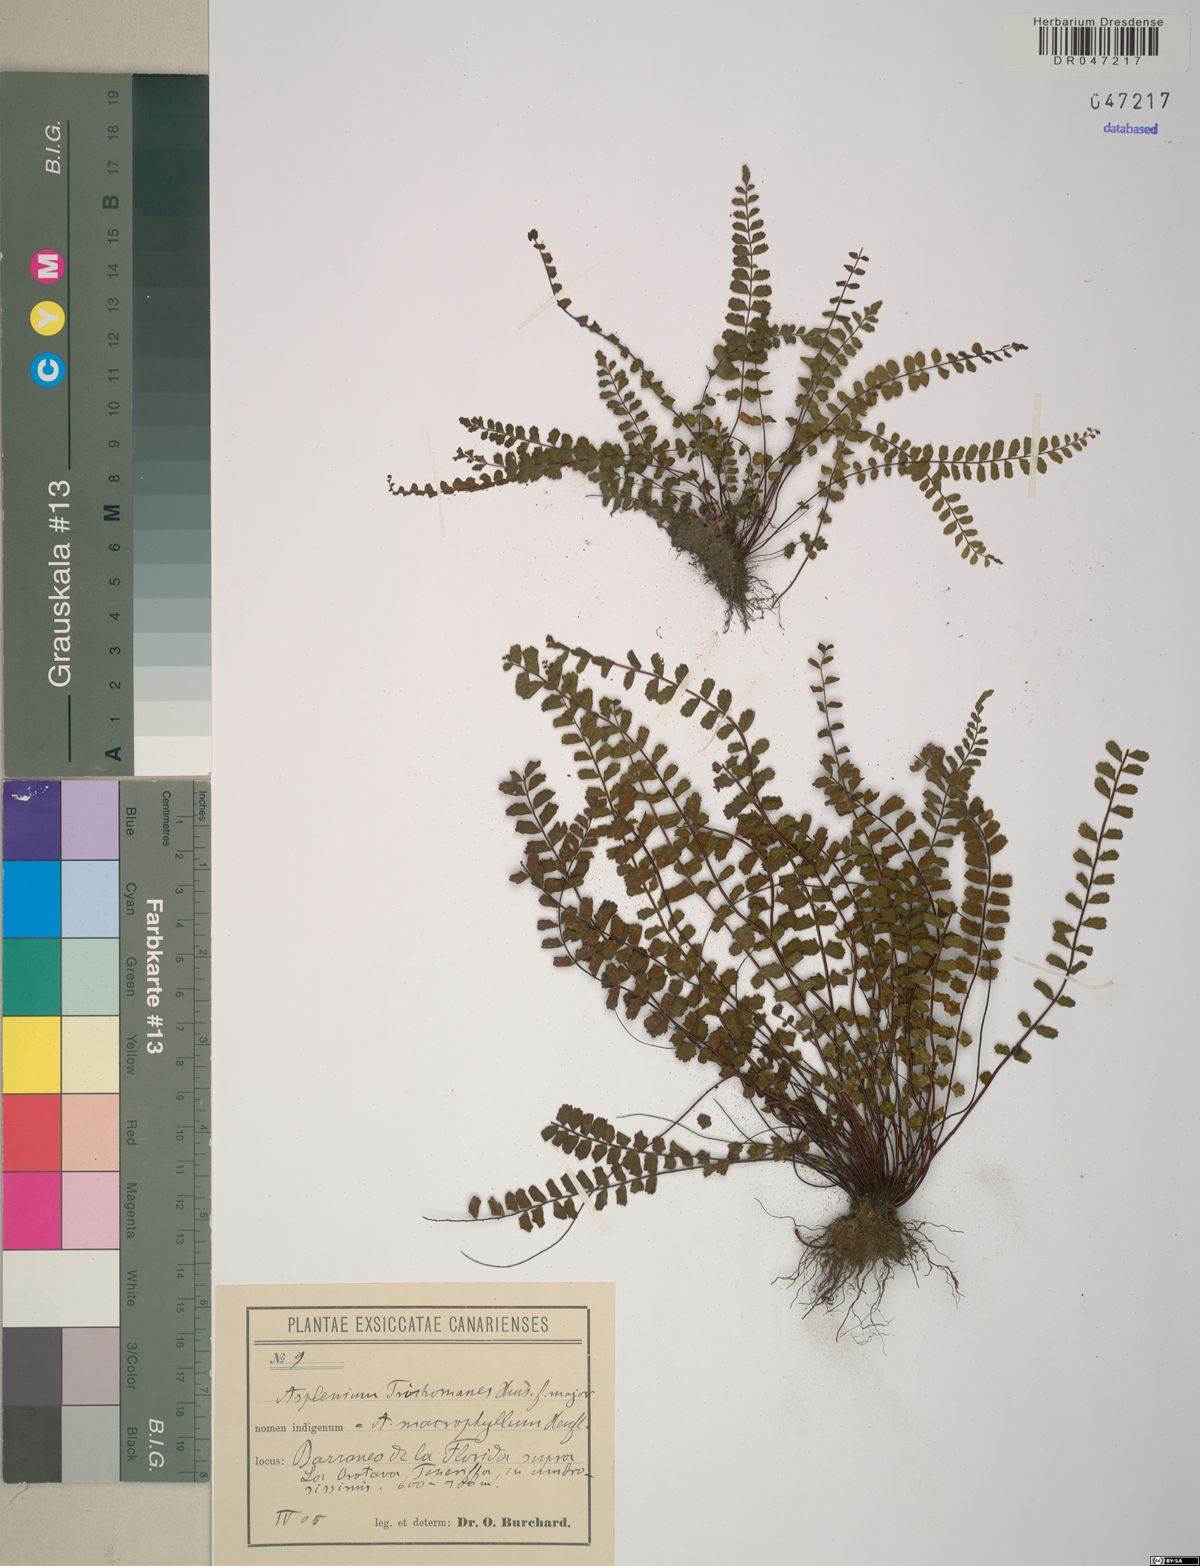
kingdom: Plantae
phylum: Tracheophyta
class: Polypodiopsida
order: Polypodiales
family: Aspleniaceae
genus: Asplenium
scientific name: Asplenium trichomanes
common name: Maidenhair spleenwort
